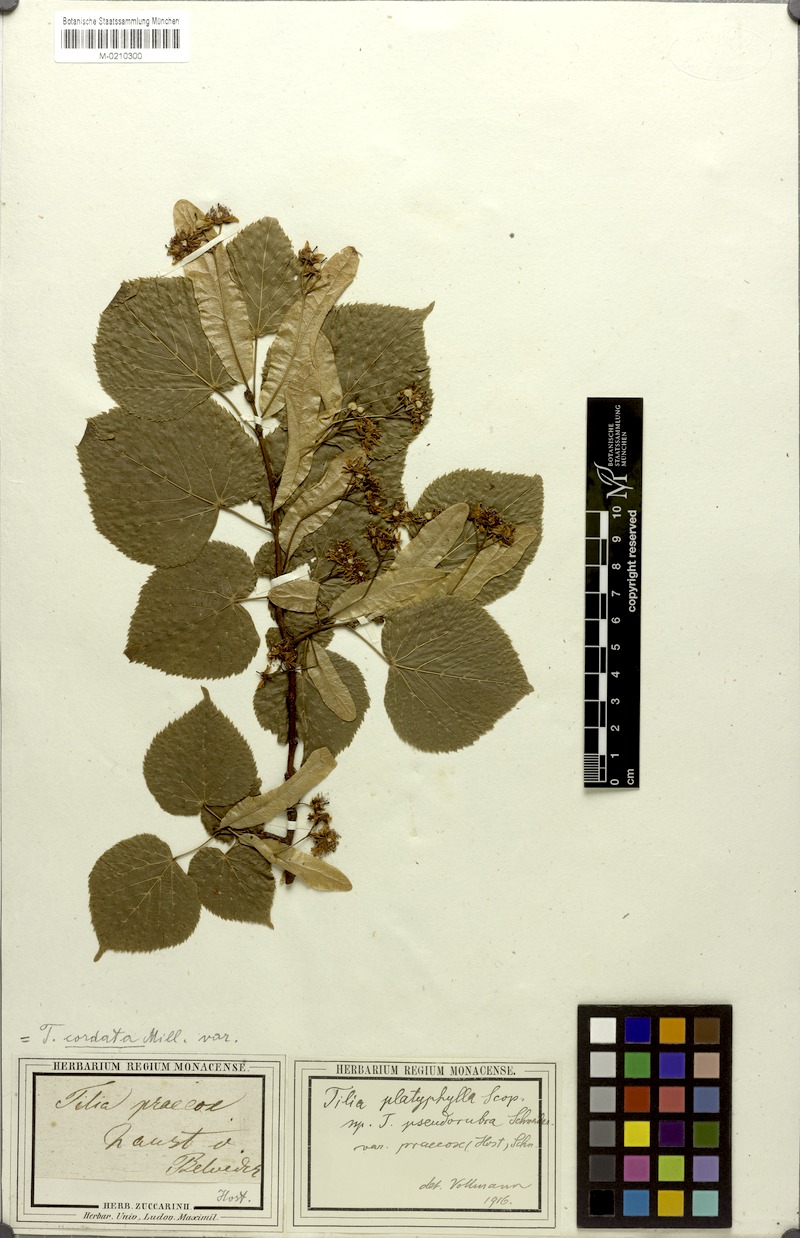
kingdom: Plantae
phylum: Tracheophyta
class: Magnoliopsida
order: Malvales
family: Malvaceae
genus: Tilia
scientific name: Tilia platyphyllos
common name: Large-leaved lime
